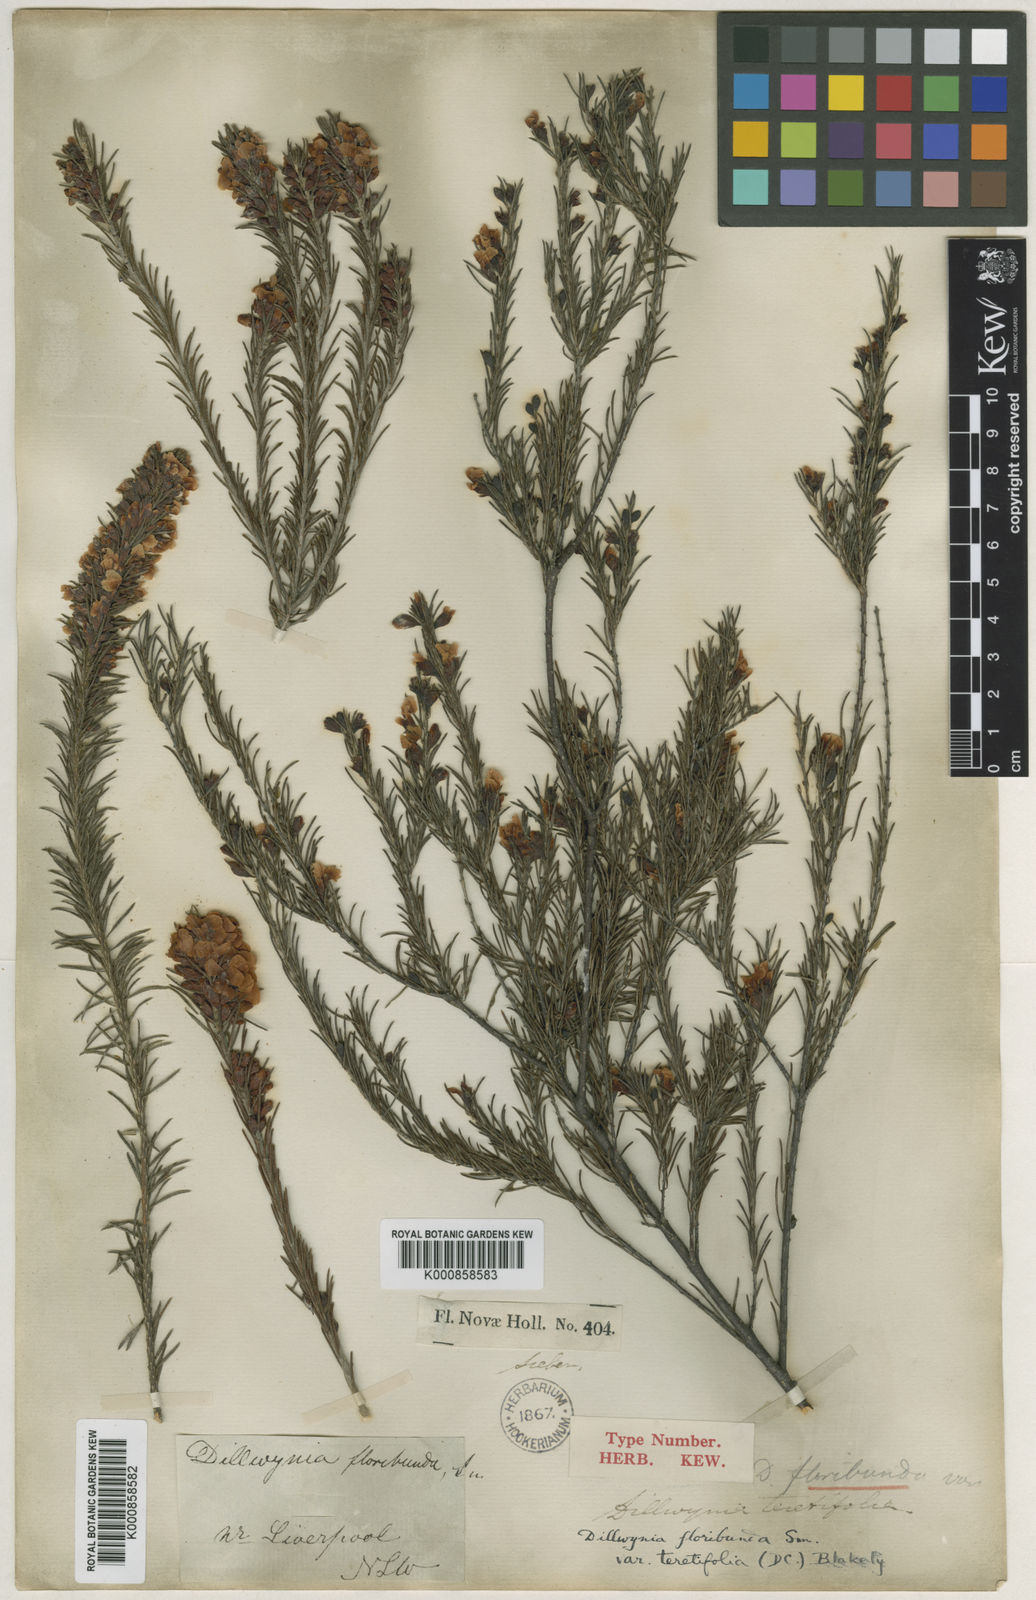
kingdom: Plantae
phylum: Tracheophyta
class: Magnoliopsida
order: Fabales
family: Fabaceae
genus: Dillwynia
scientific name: Dillwynia floribunda
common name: Eggs-and-bacon
